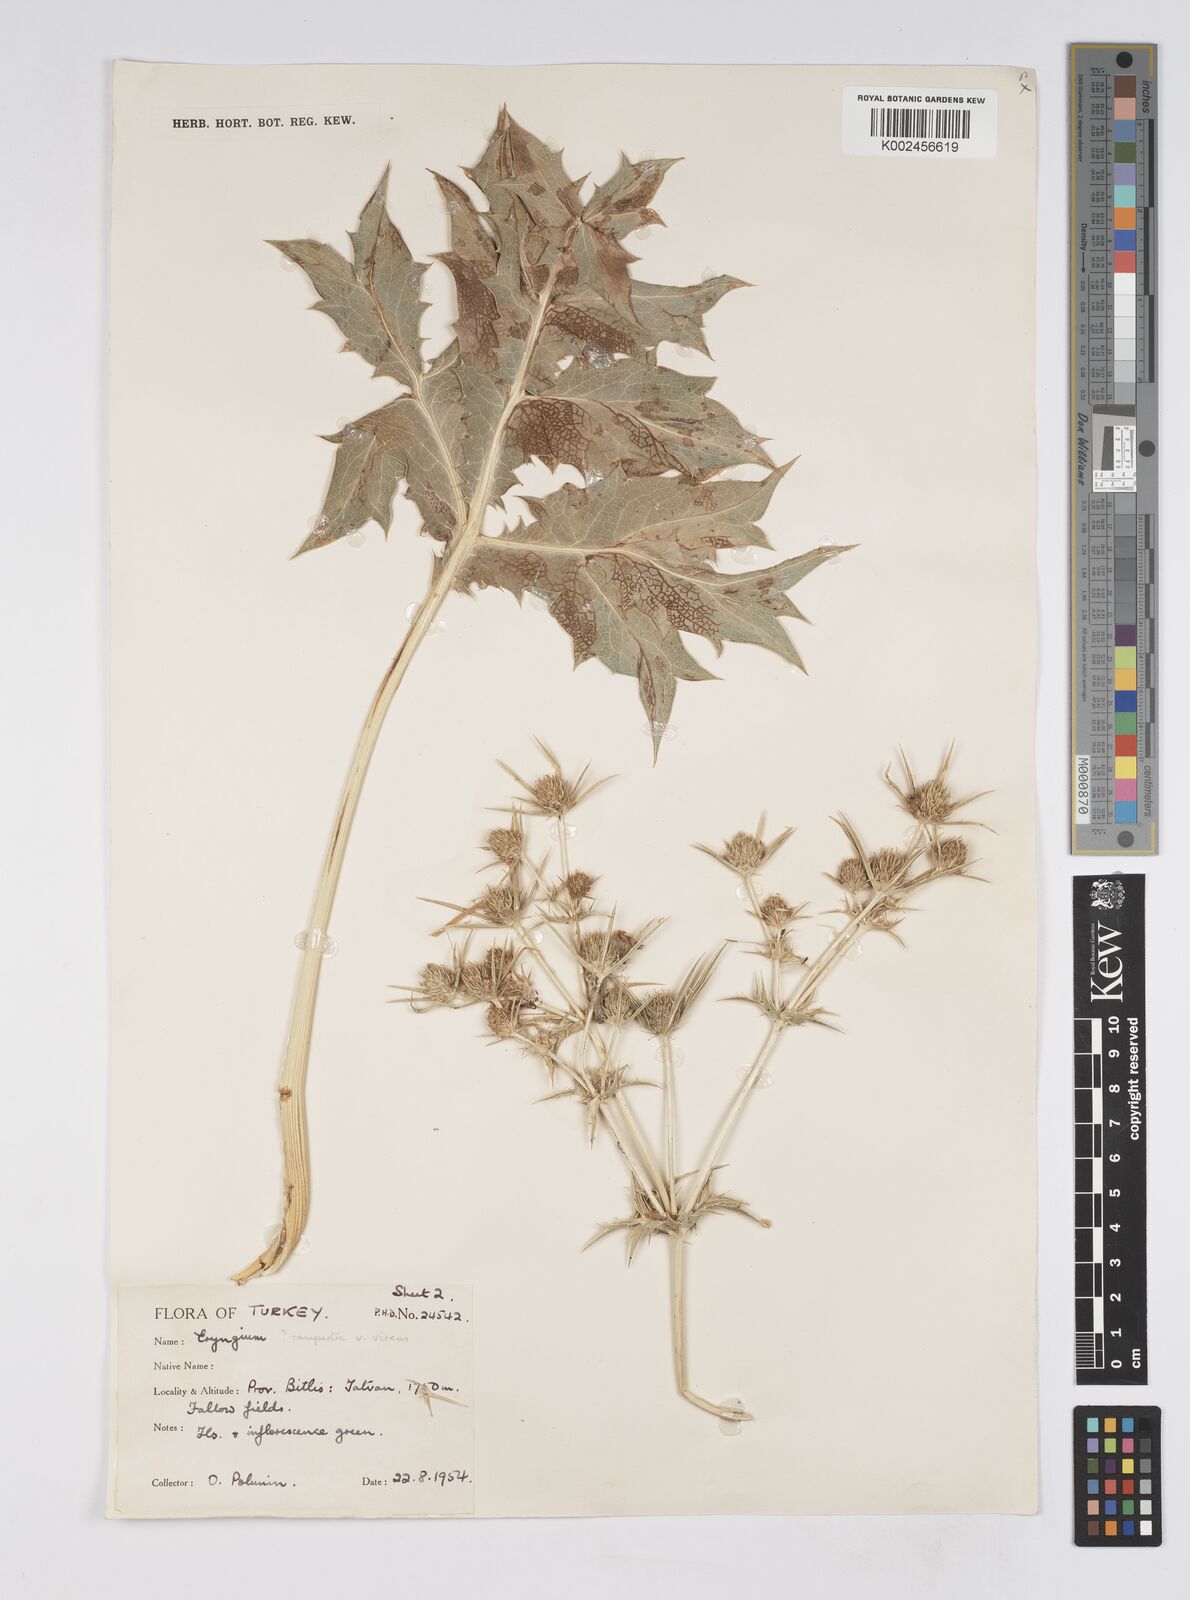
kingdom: Plantae
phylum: Tracheophyta
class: Magnoliopsida
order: Apiales
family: Apiaceae
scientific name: Apiaceae
